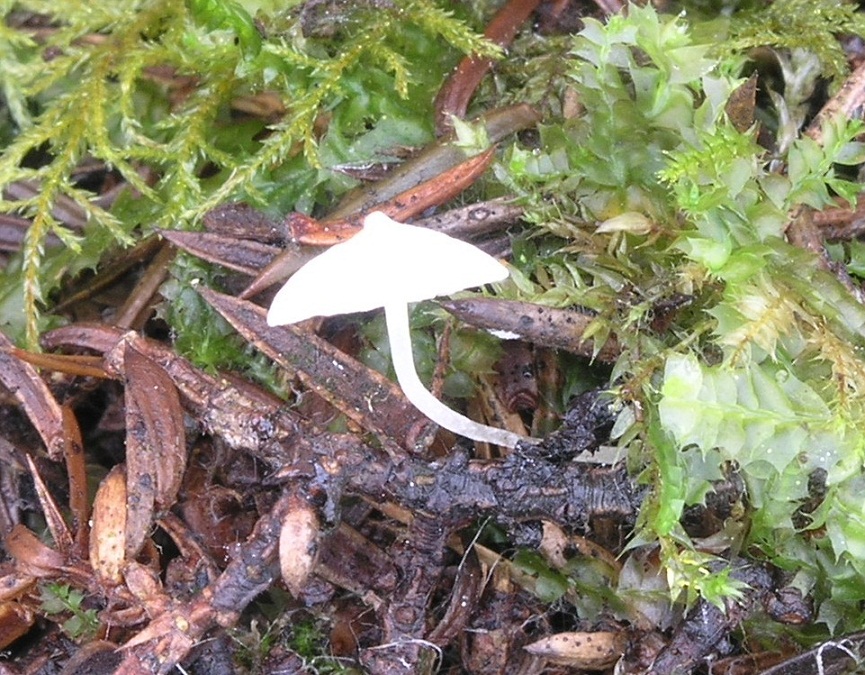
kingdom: Fungi
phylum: Basidiomycota
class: Agaricomycetes
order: Agaricales
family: Mycenaceae
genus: Hemimycena
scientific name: Hemimycena lactea
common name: mælkehvid huesvamp
